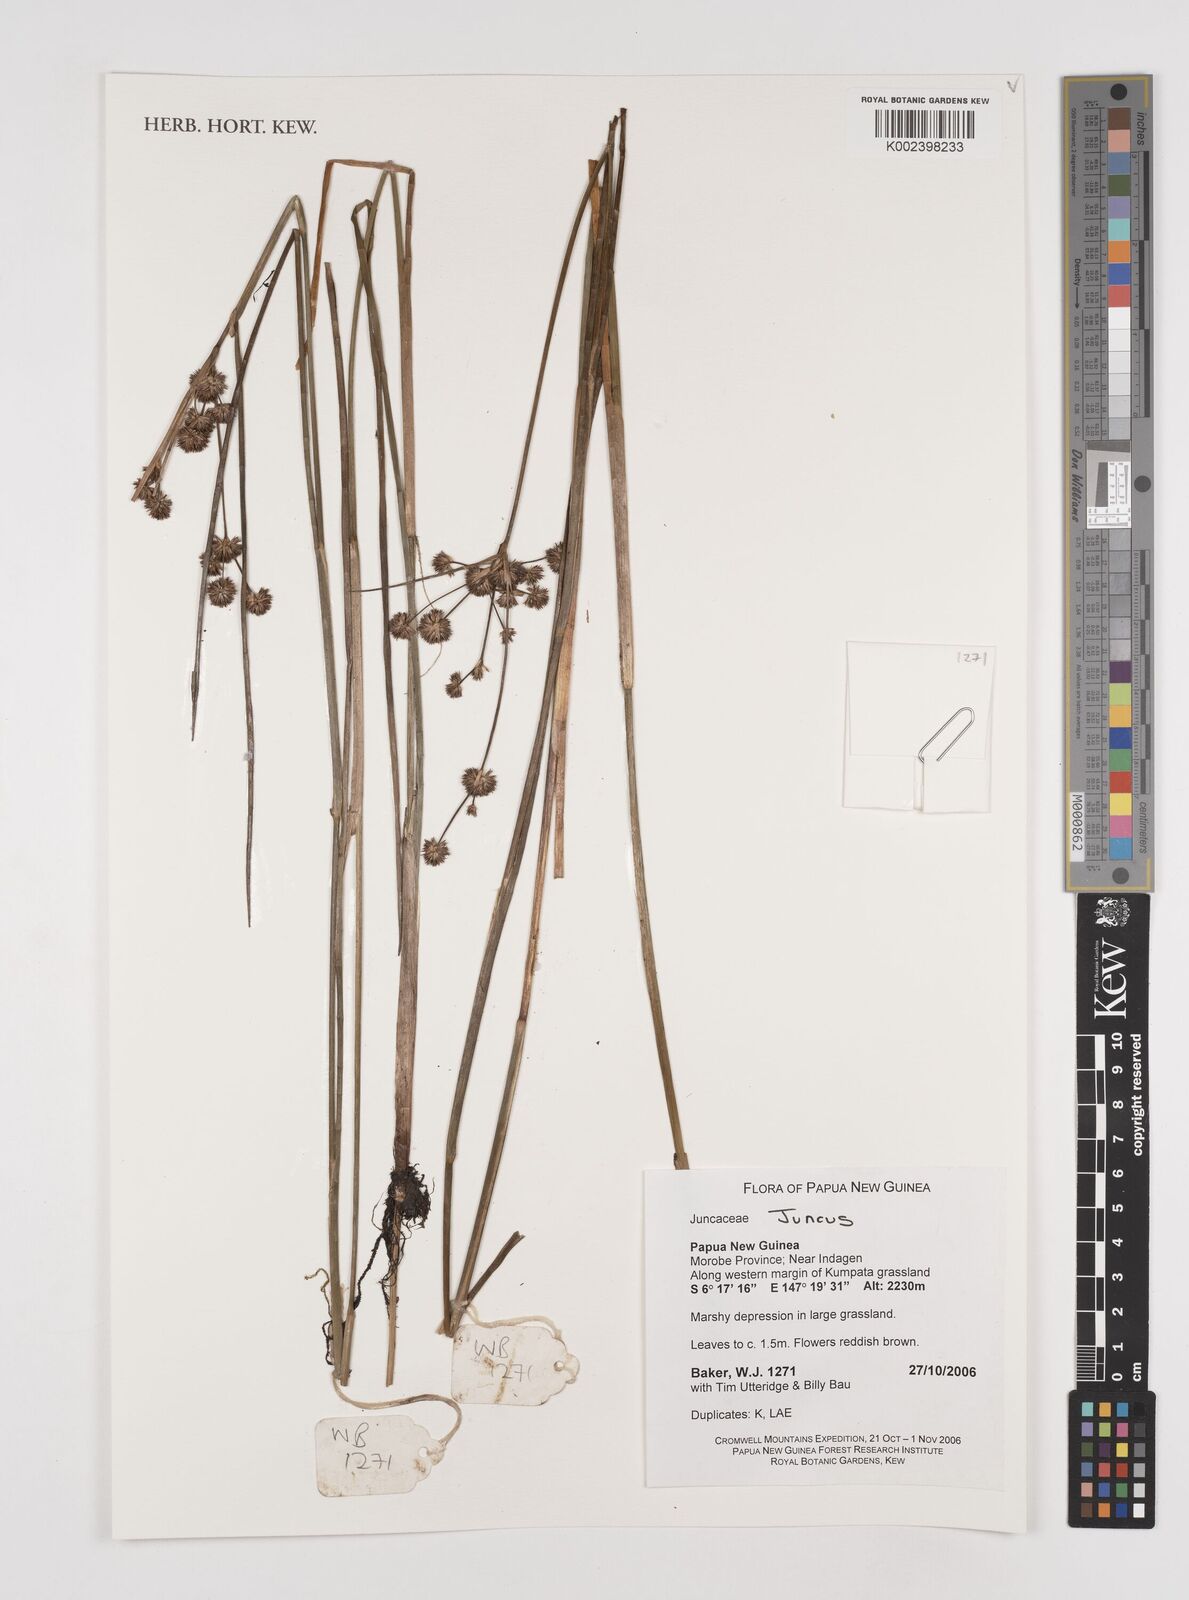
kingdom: Plantae
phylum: Tracheophyta
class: Liliopsida
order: Poales
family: Juncaceae
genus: Juncus
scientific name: Juncus
